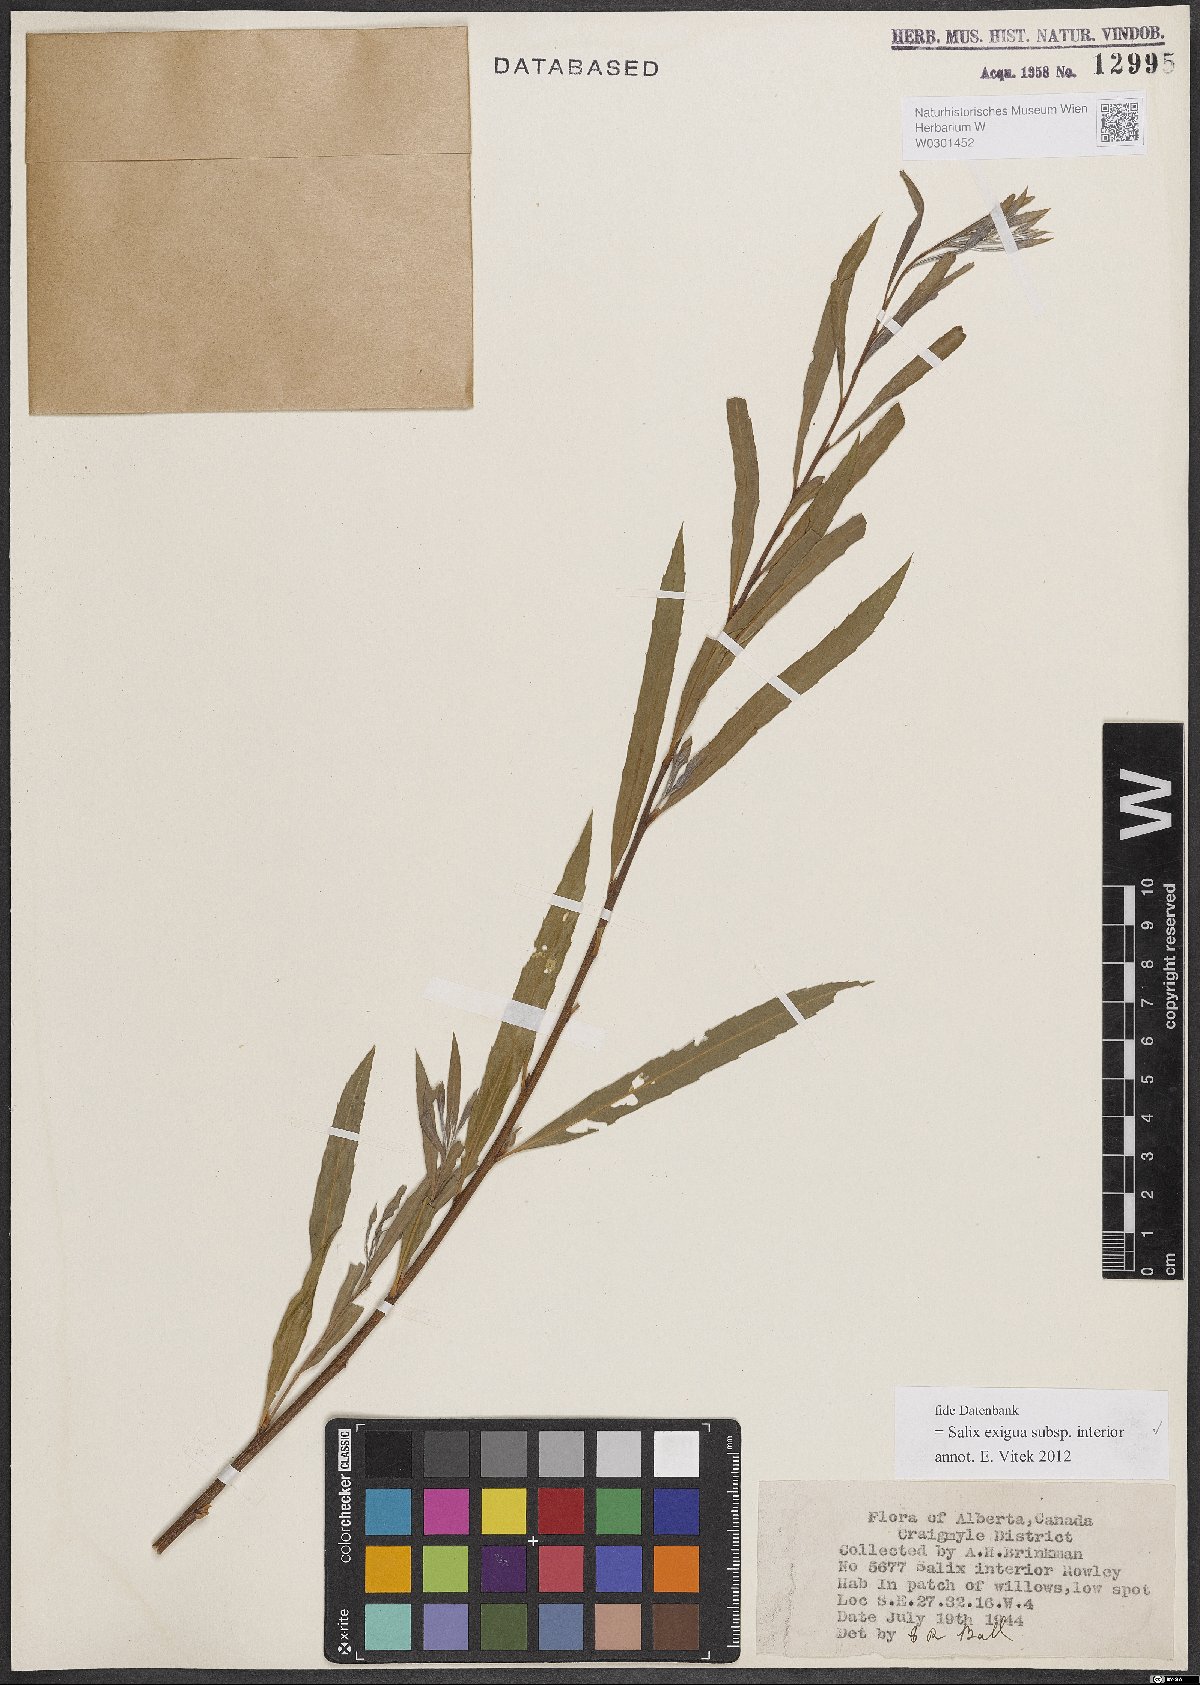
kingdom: Plantae
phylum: Tracheophyta
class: Magnoliopsida
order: Malpighiales
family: Salicaceae
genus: Salix
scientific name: Salix interior
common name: Sandbar willow
